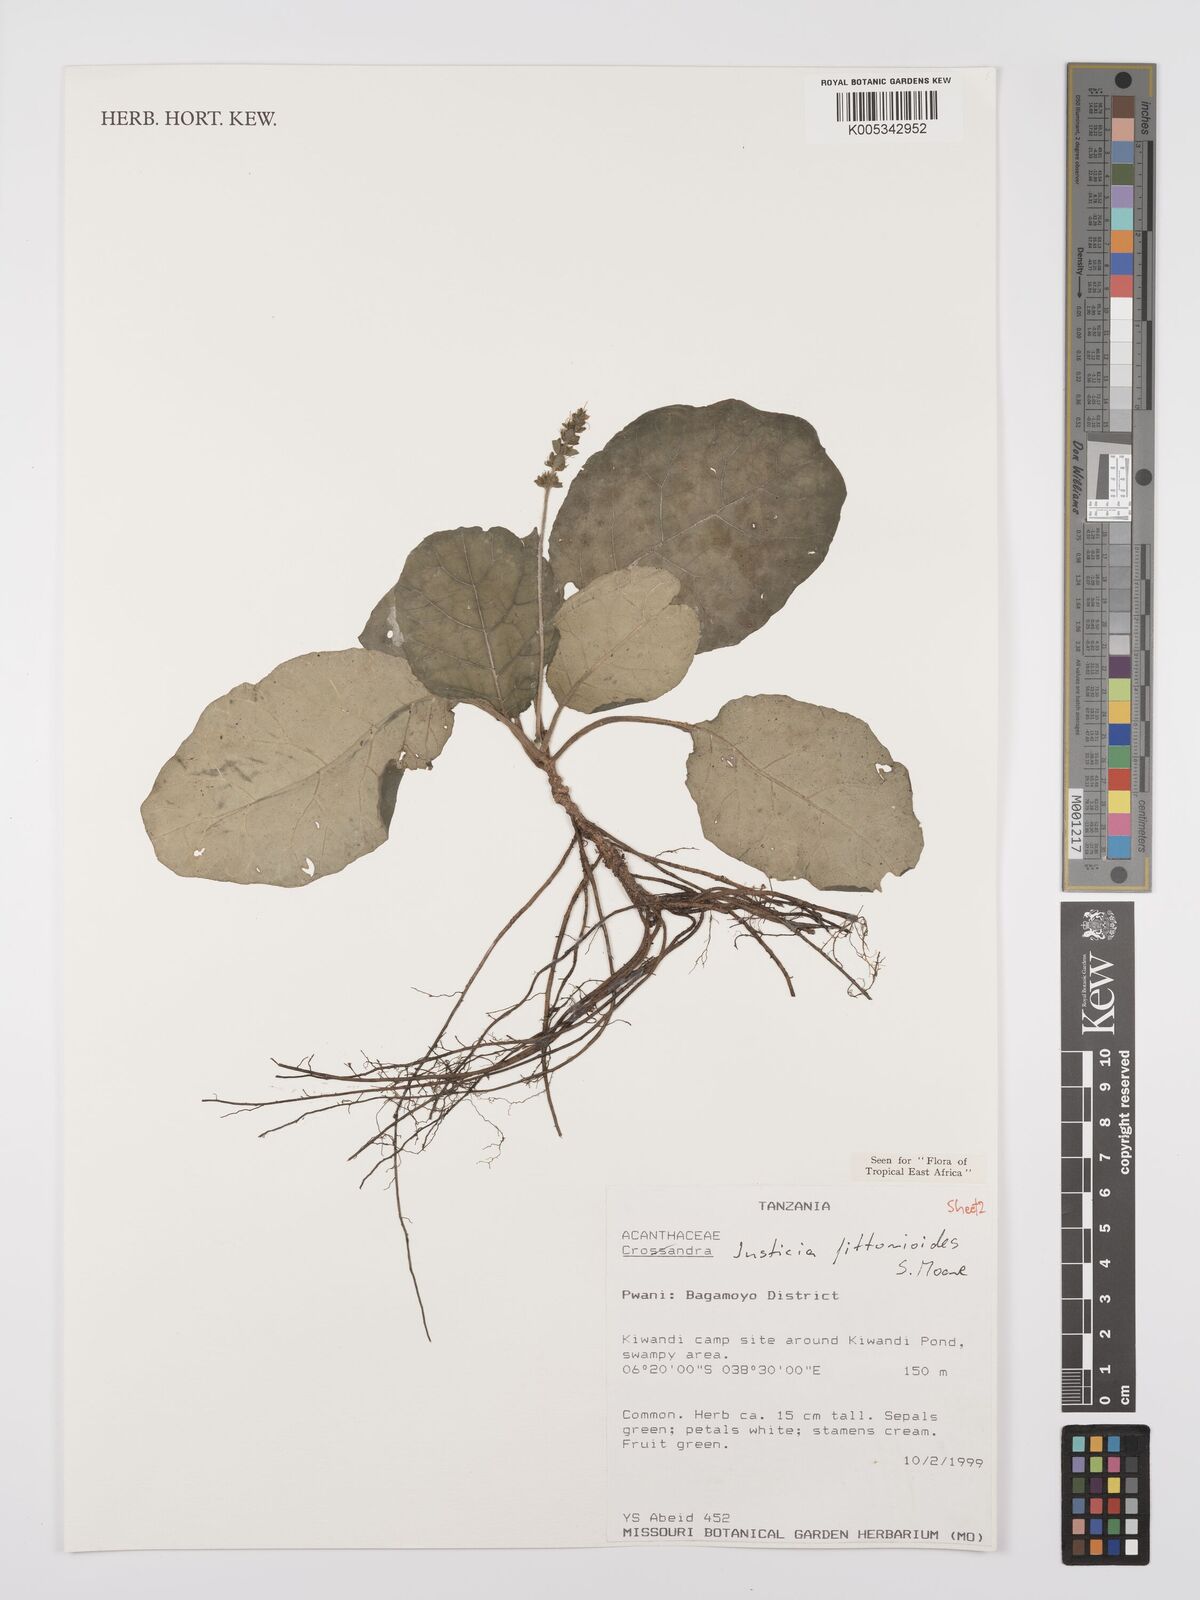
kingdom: Plantae
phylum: Tracheophyta
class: Magnoliopsida
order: Lamiales
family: Acanthaceae
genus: Justicia
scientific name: Justicia
